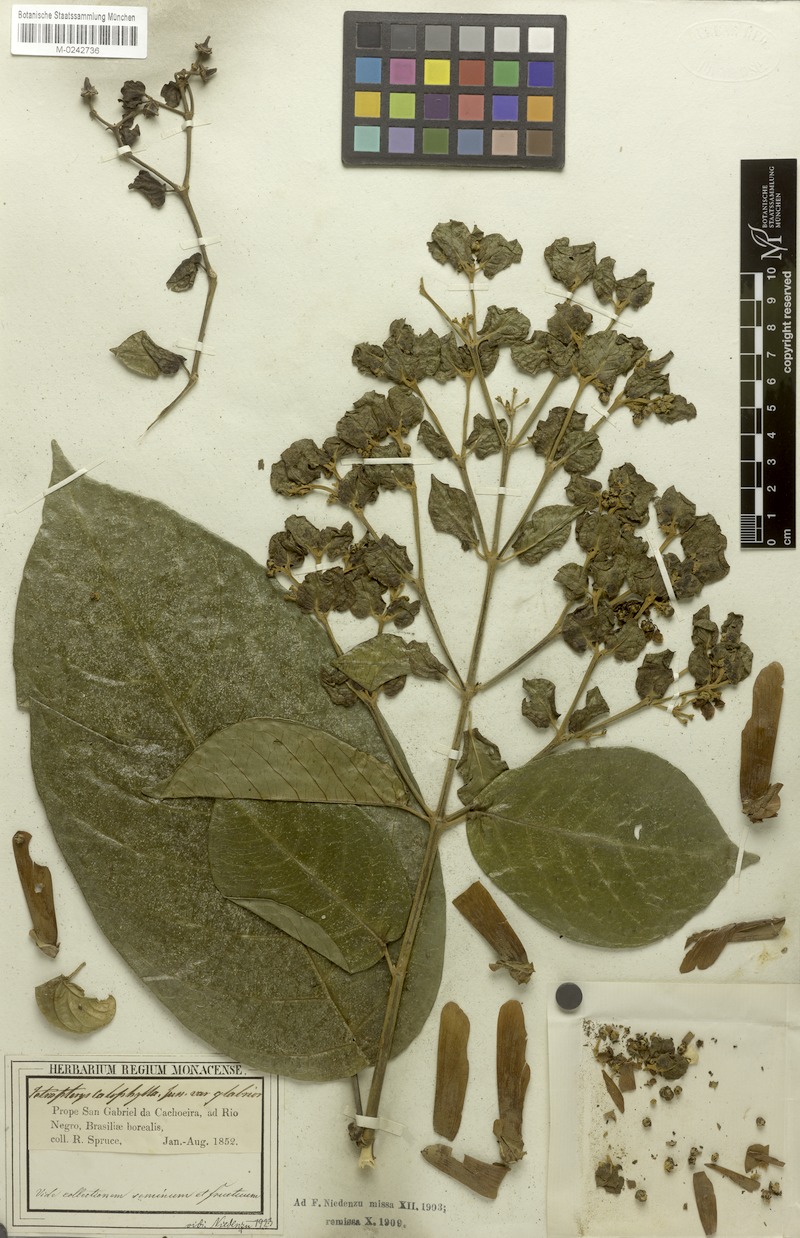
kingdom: Plantae
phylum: Tracheophyta
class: Magnoliopsida
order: Malpighiales
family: Malpighiaceae
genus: Tetrapterys
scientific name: Tetrapterys tinifolia
